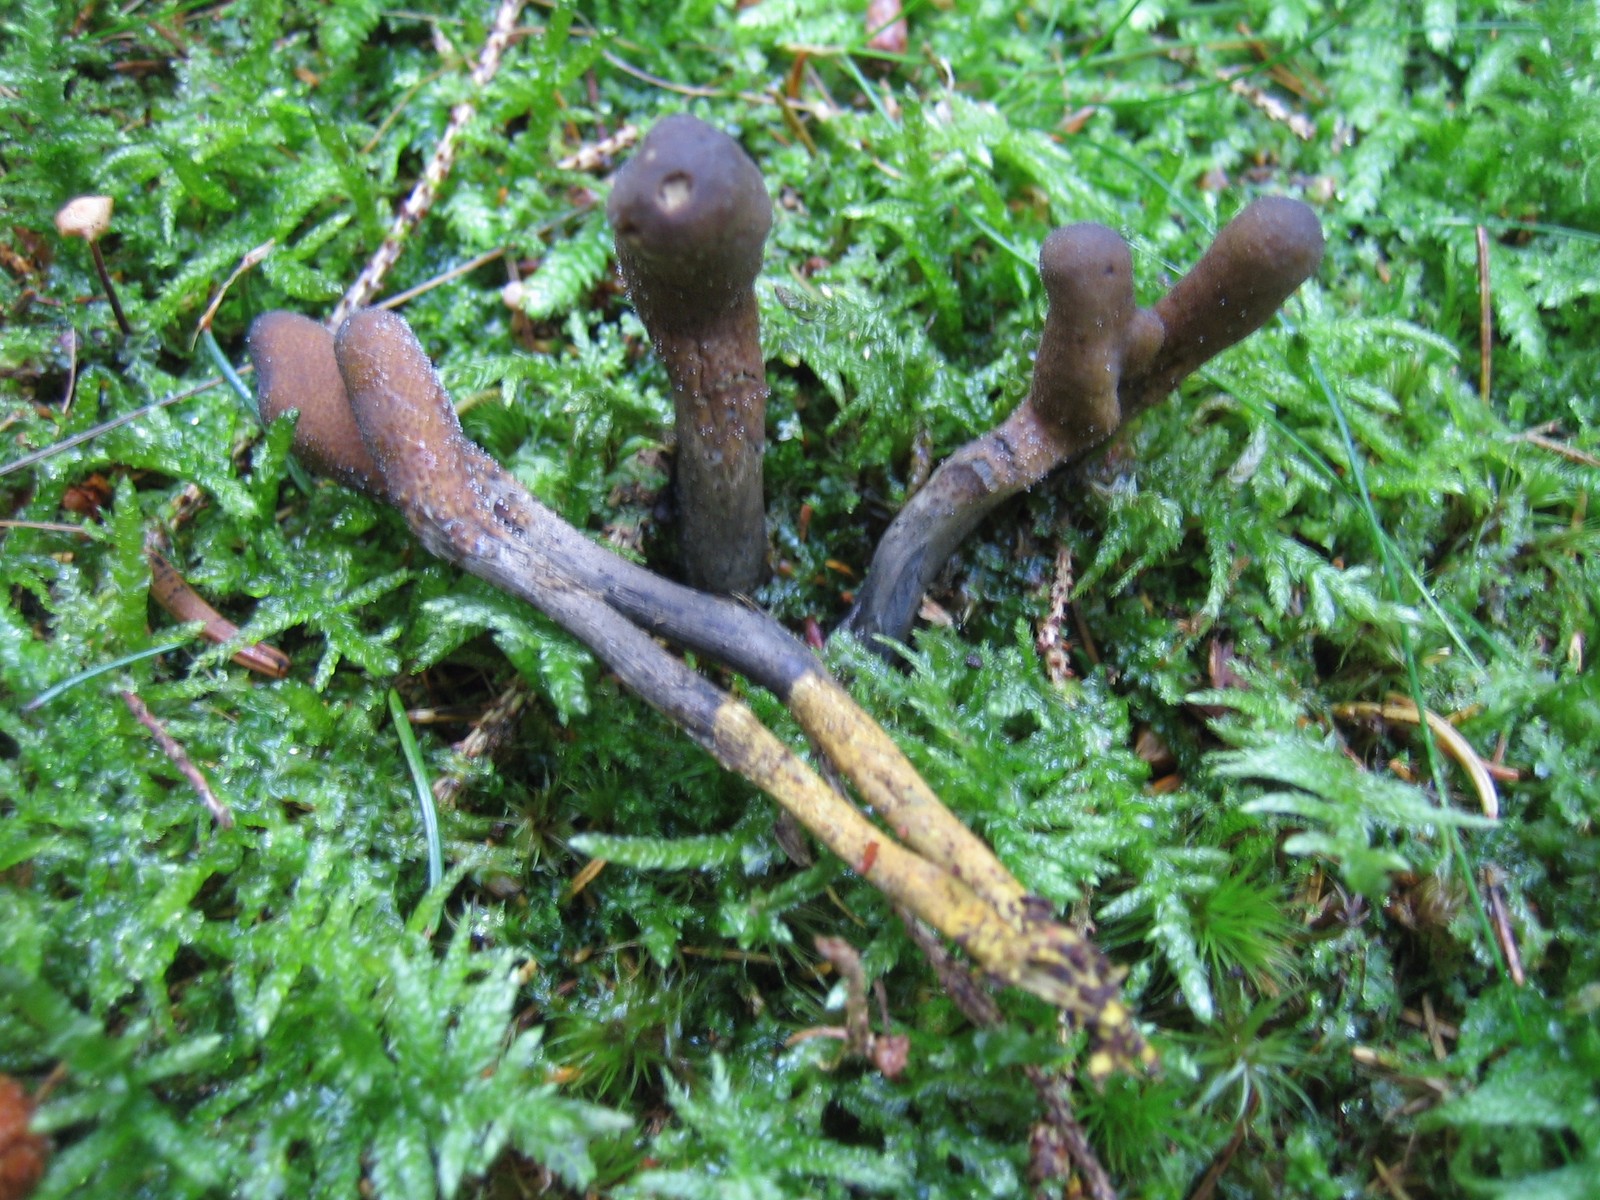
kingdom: Fungi
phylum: Ascomycota
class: Sordariomycetes
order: Hypocreales
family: Ophiocordycipitaceae
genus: Tolypocladium
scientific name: Tolypocladium ophioglossoides
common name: slank snyltekølle
